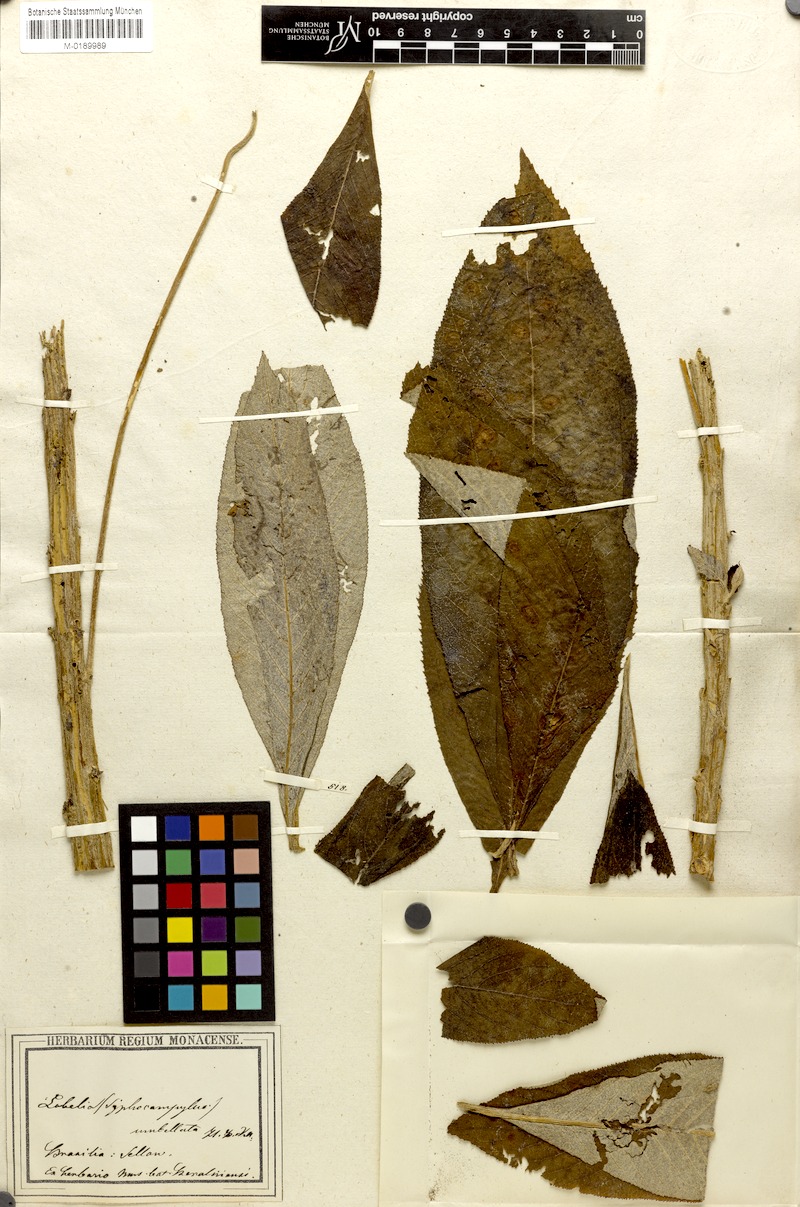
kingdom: Plantae
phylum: Tracheophyta
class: Magnoliopsida
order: Asterales
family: Campanulaceae
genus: Siphocampylus
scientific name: Siphocampylus umbellatus
